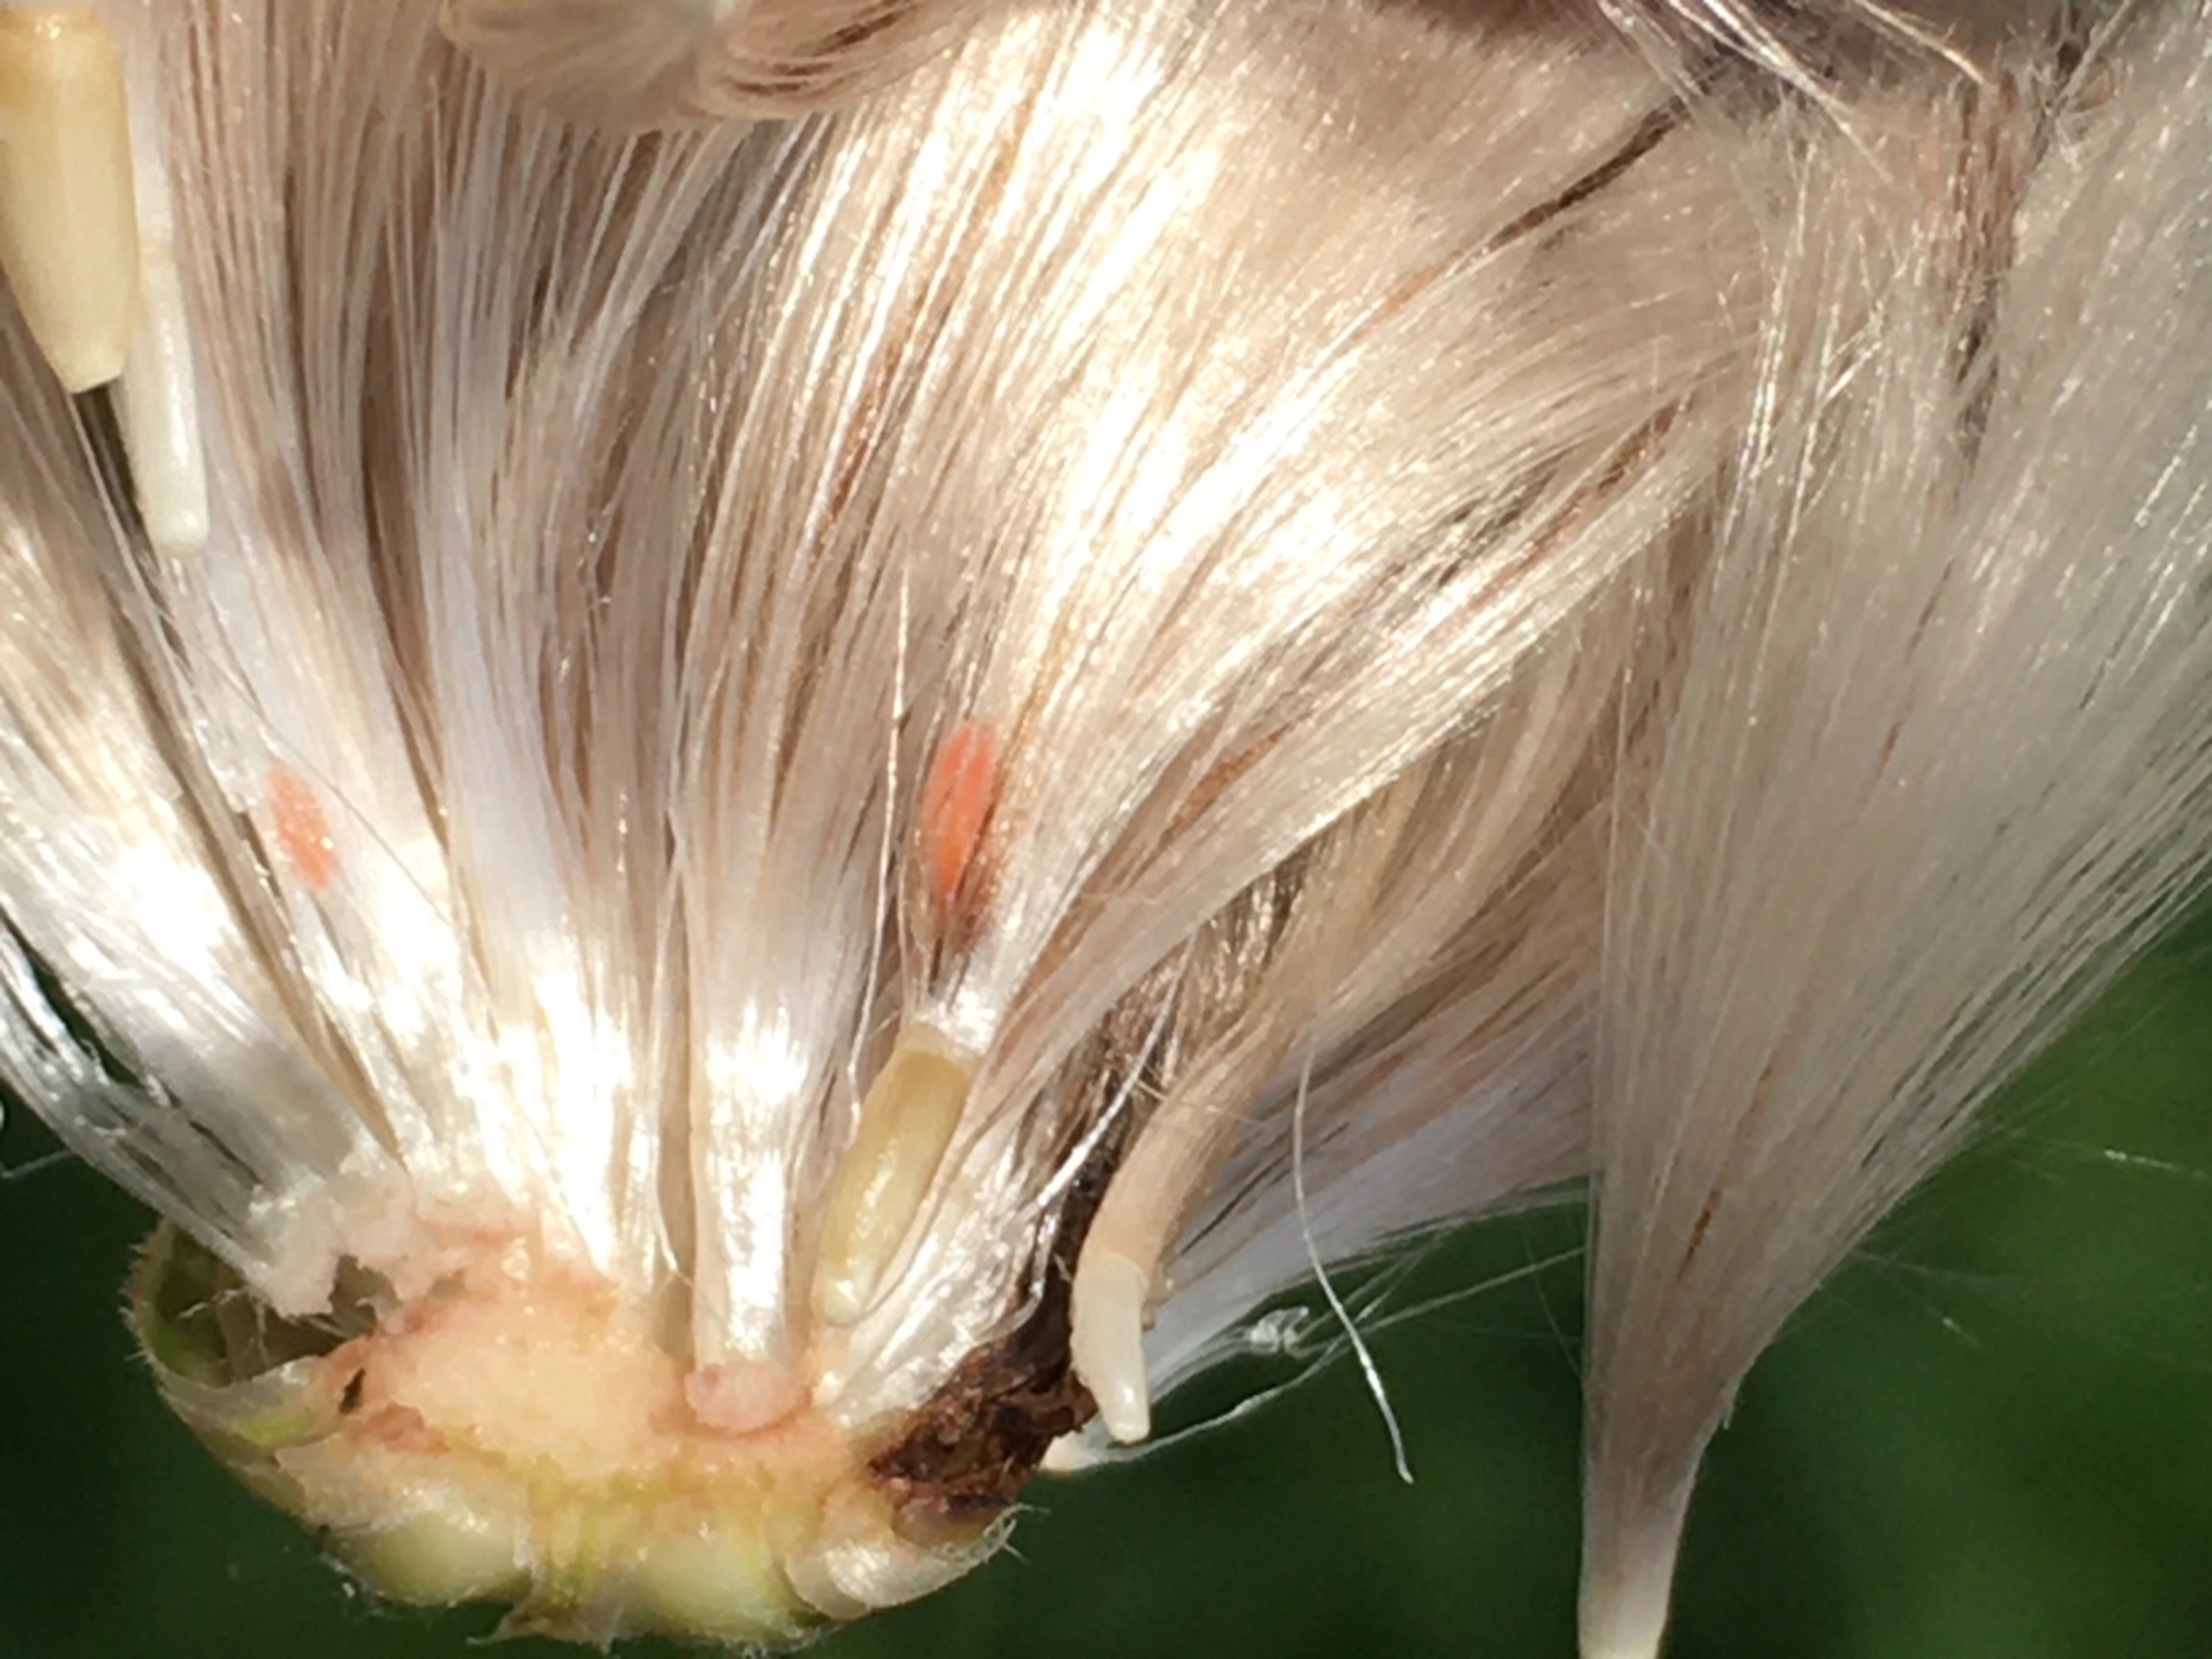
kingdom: Animalia
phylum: Arthropoda
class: Insecta
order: Diptera
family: Cecidomyiidae
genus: Jaapiella
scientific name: Jaapiella cirsiicola
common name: Tidselgalmyg
